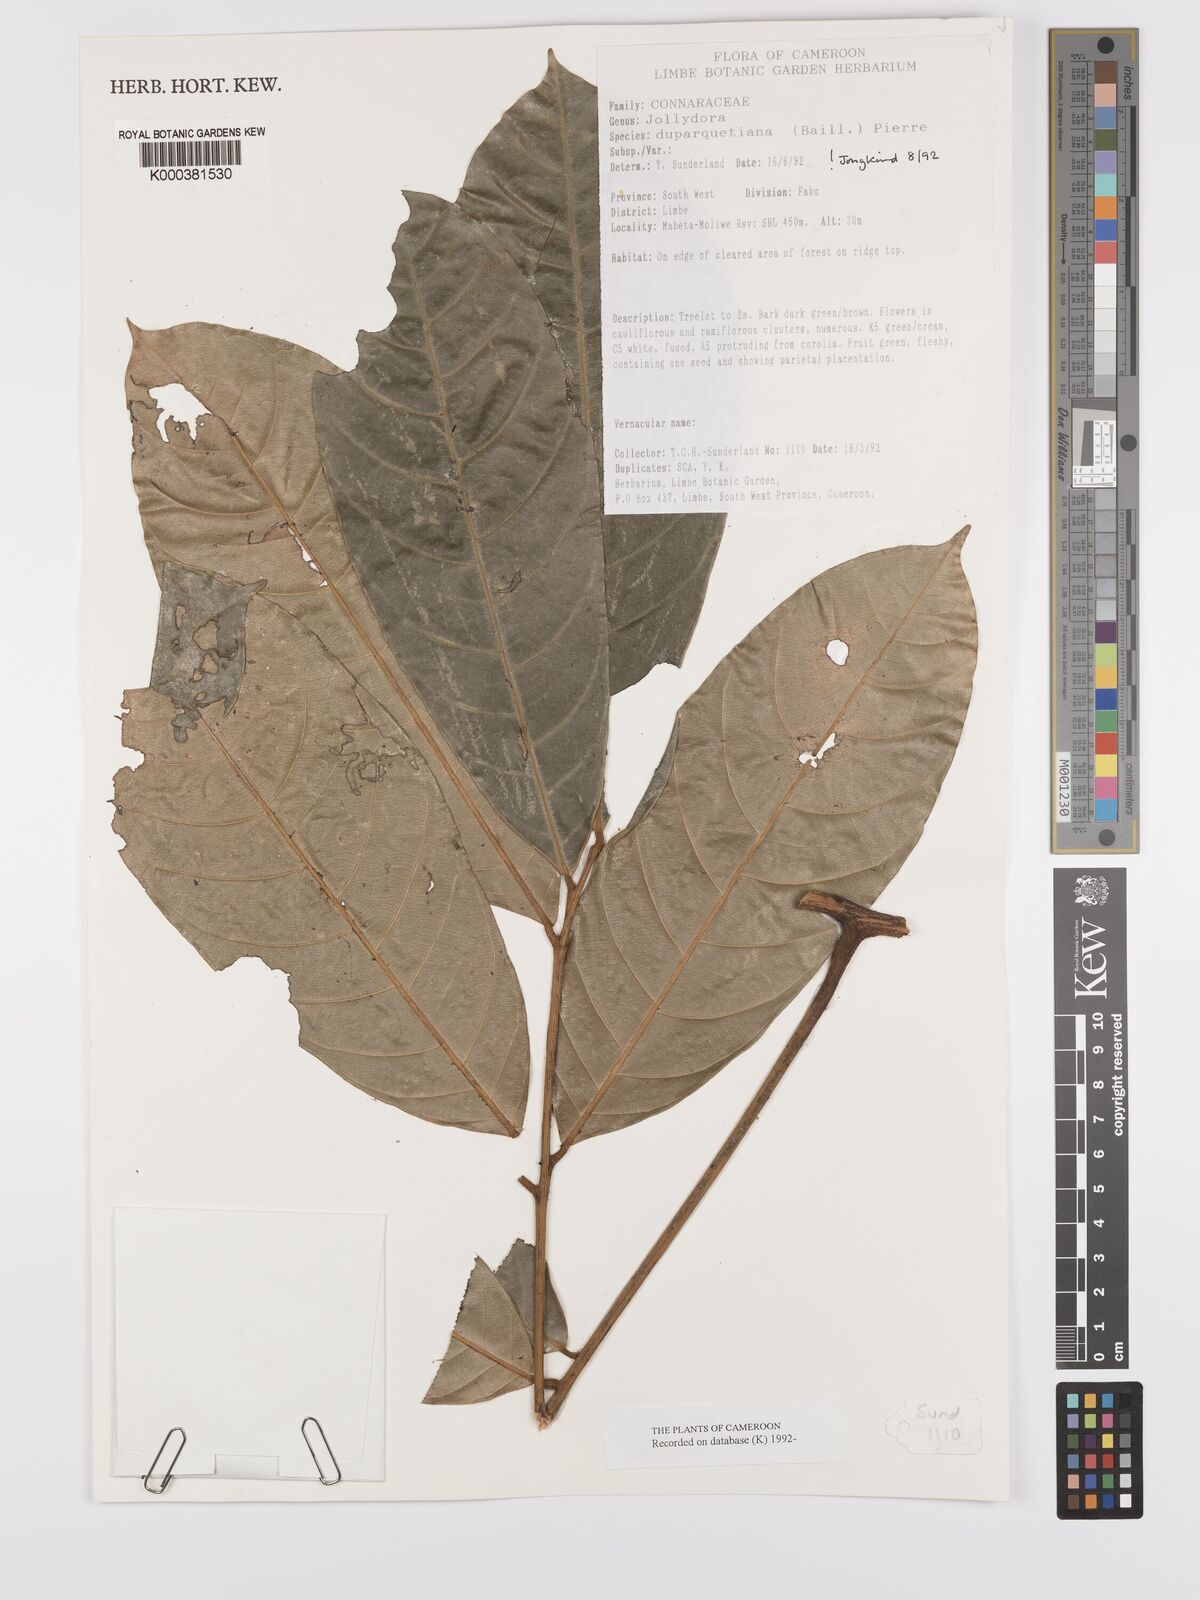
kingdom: Plantae
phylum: Tracheophyta
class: Magnoliopsida
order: Oxalidales
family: Connaraceae
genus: Jollydora
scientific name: Jollydora duparquetiana
